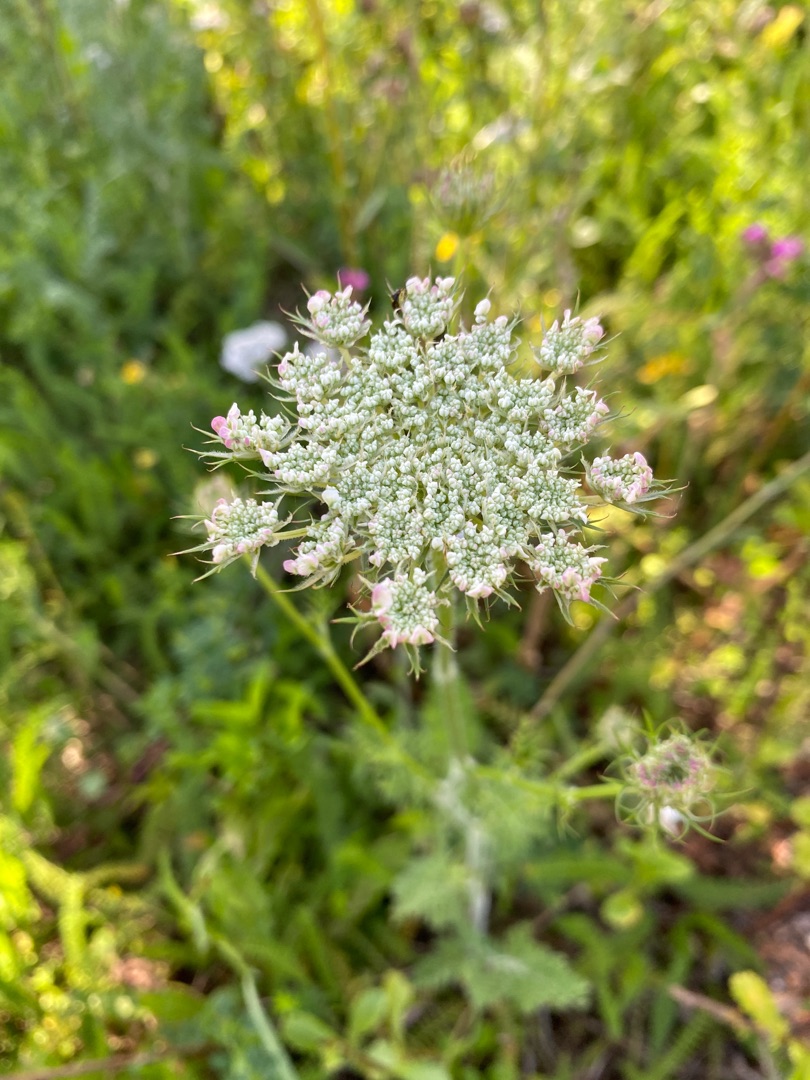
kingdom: Plantae
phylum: Tracheophyta
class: Magnoliopsida
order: Apiales
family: Apiaceae
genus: Daucus
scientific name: Daucus carota
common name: Gulerod
